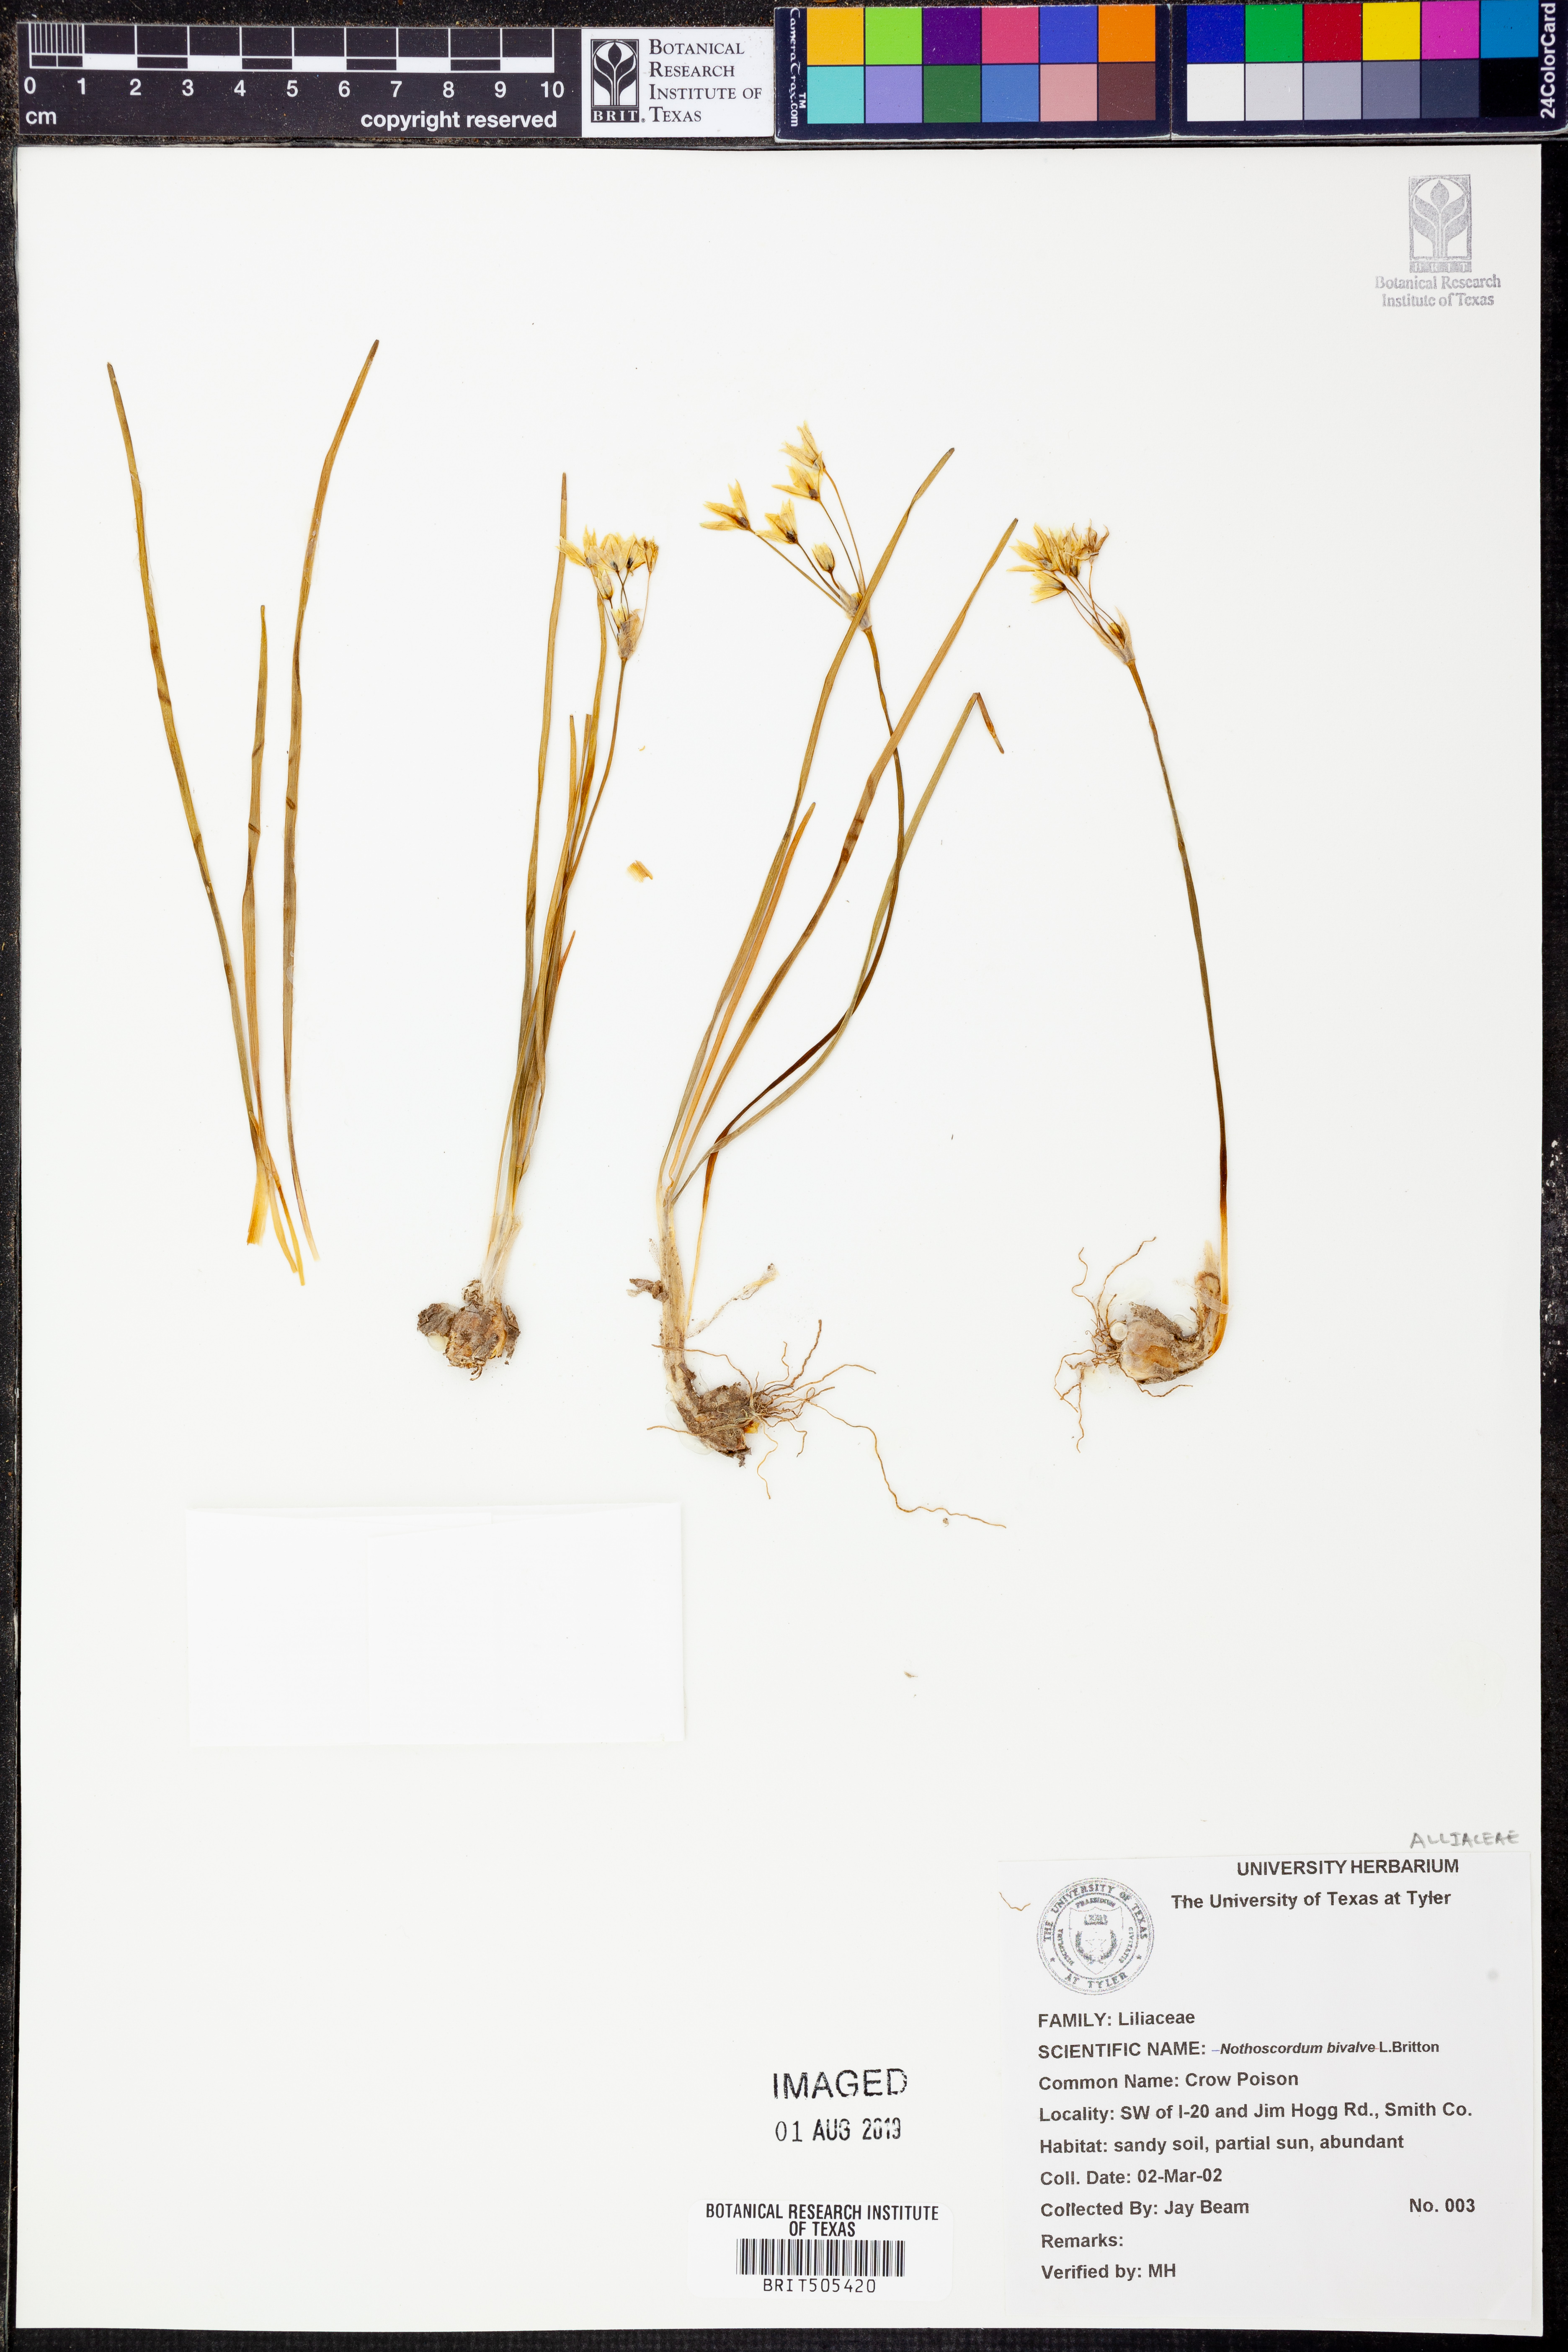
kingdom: Plantae
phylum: Tracheophyta
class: Liliopsida
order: Asparagales
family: Amaryllidaceae
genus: Nothoscordum
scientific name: Nothoscordum bivalve
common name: Crow-poison
